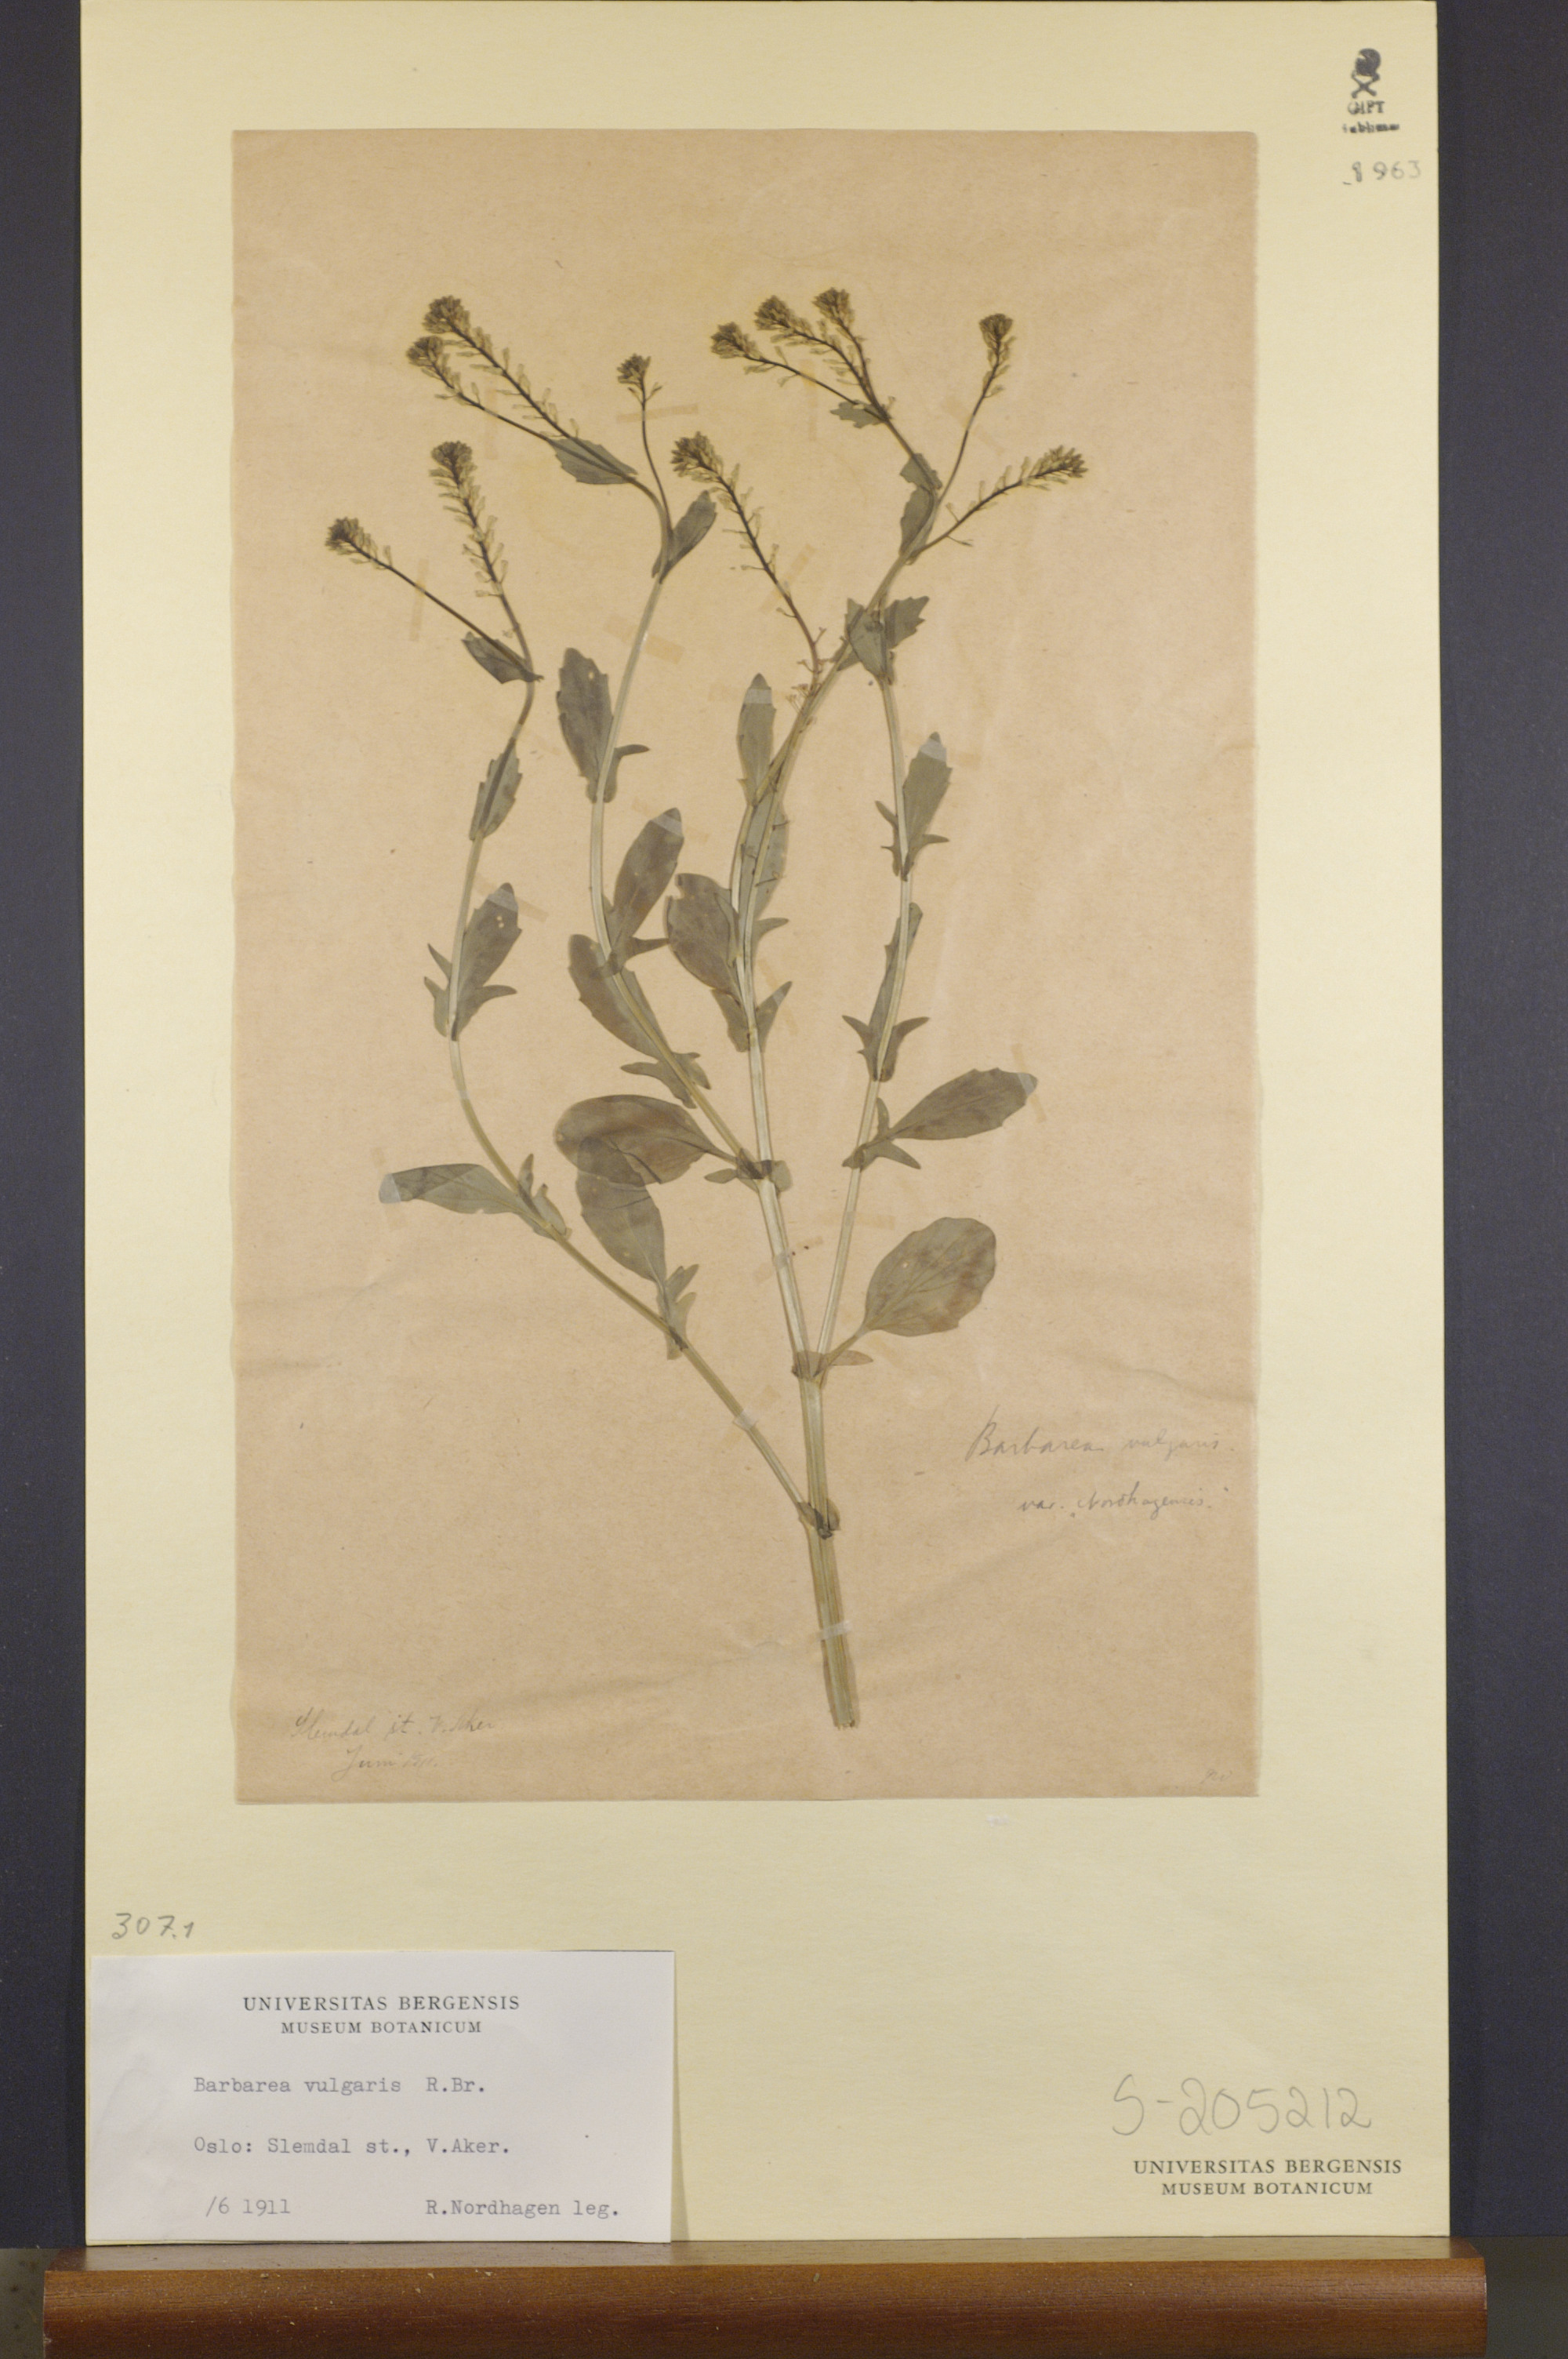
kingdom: Plantae
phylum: Tracheophyta
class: Magnoliopsida
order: Brassicales
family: Brassicaceae
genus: Barbarea
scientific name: Barbarea vulgaris
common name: Cressy-greens
